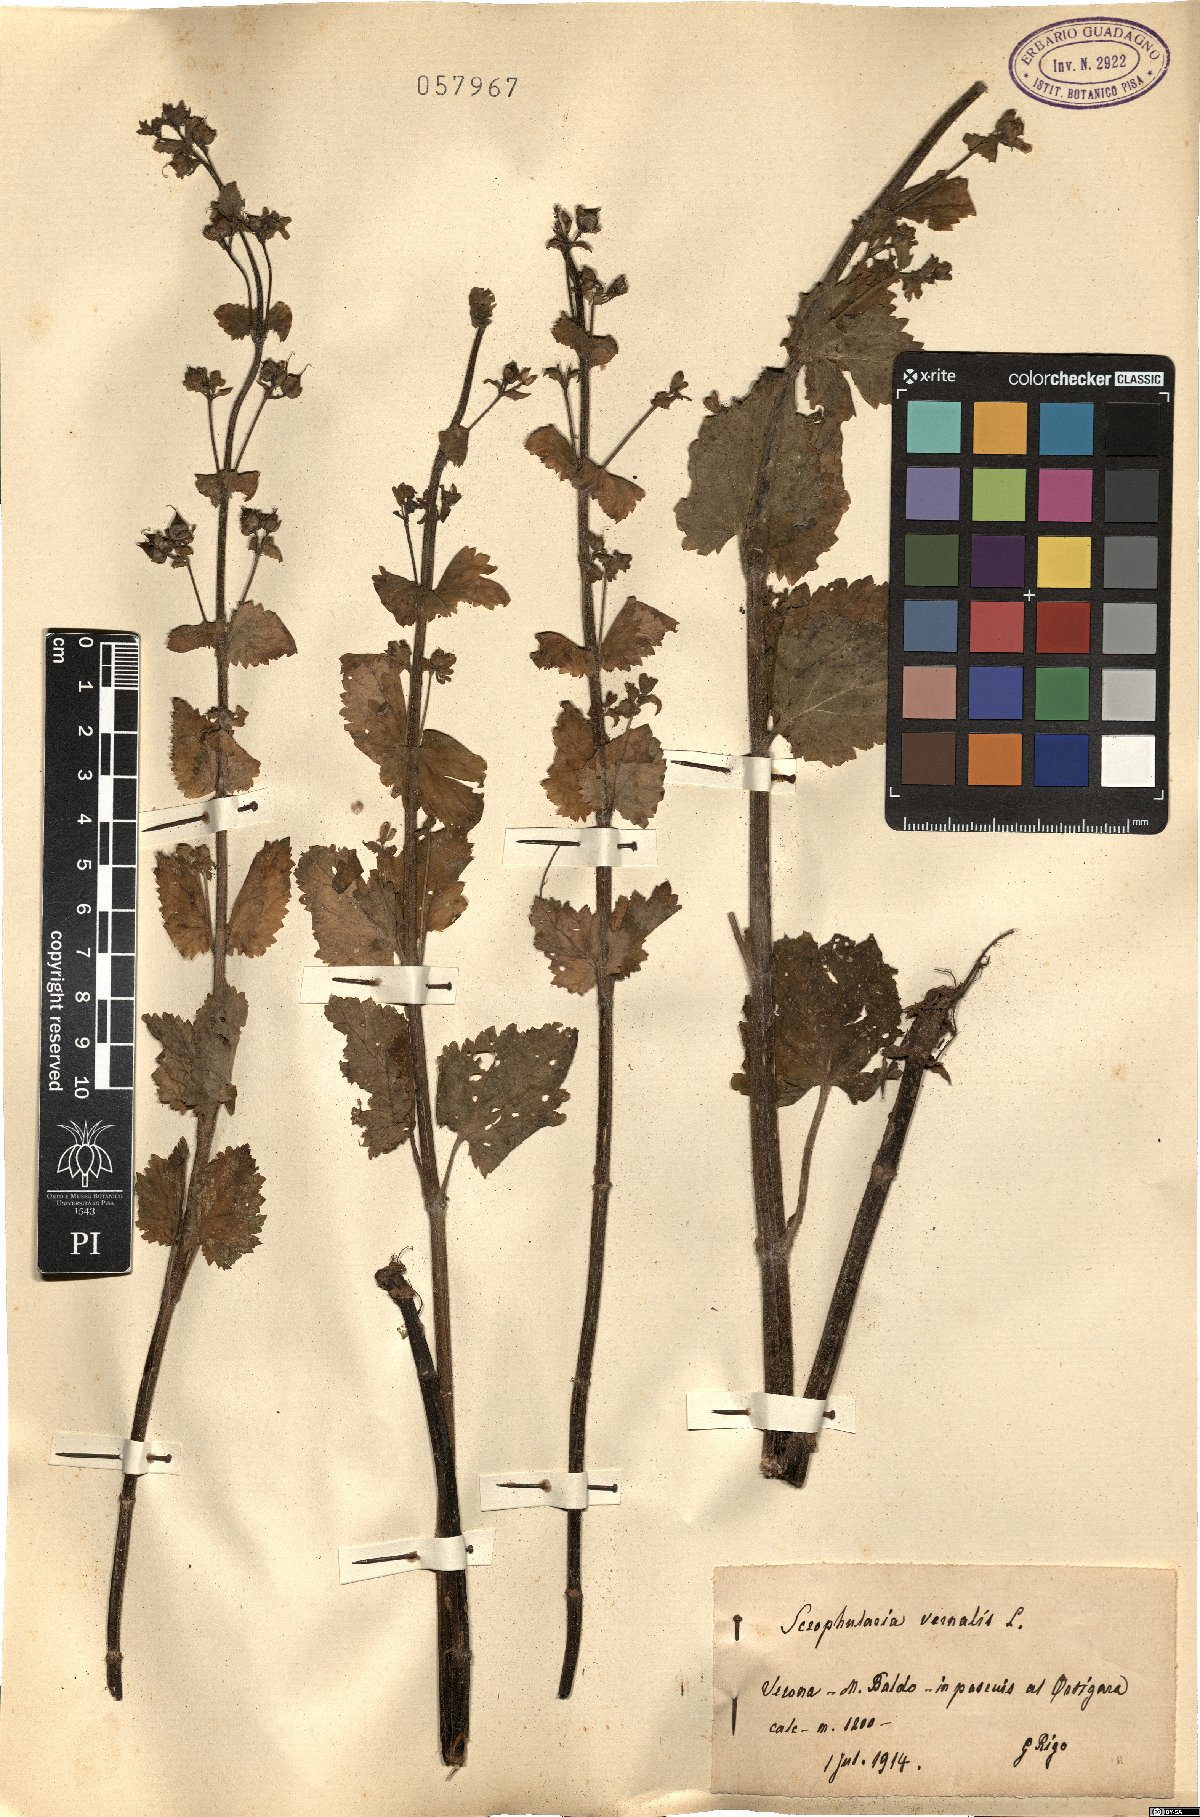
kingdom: Plantae
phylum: Tracheophyta
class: Magnoliopsida
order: Lamiales
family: Scrophulariaceae
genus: Scrophularia
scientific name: Scrophularia vernalis
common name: Yellow figwort
